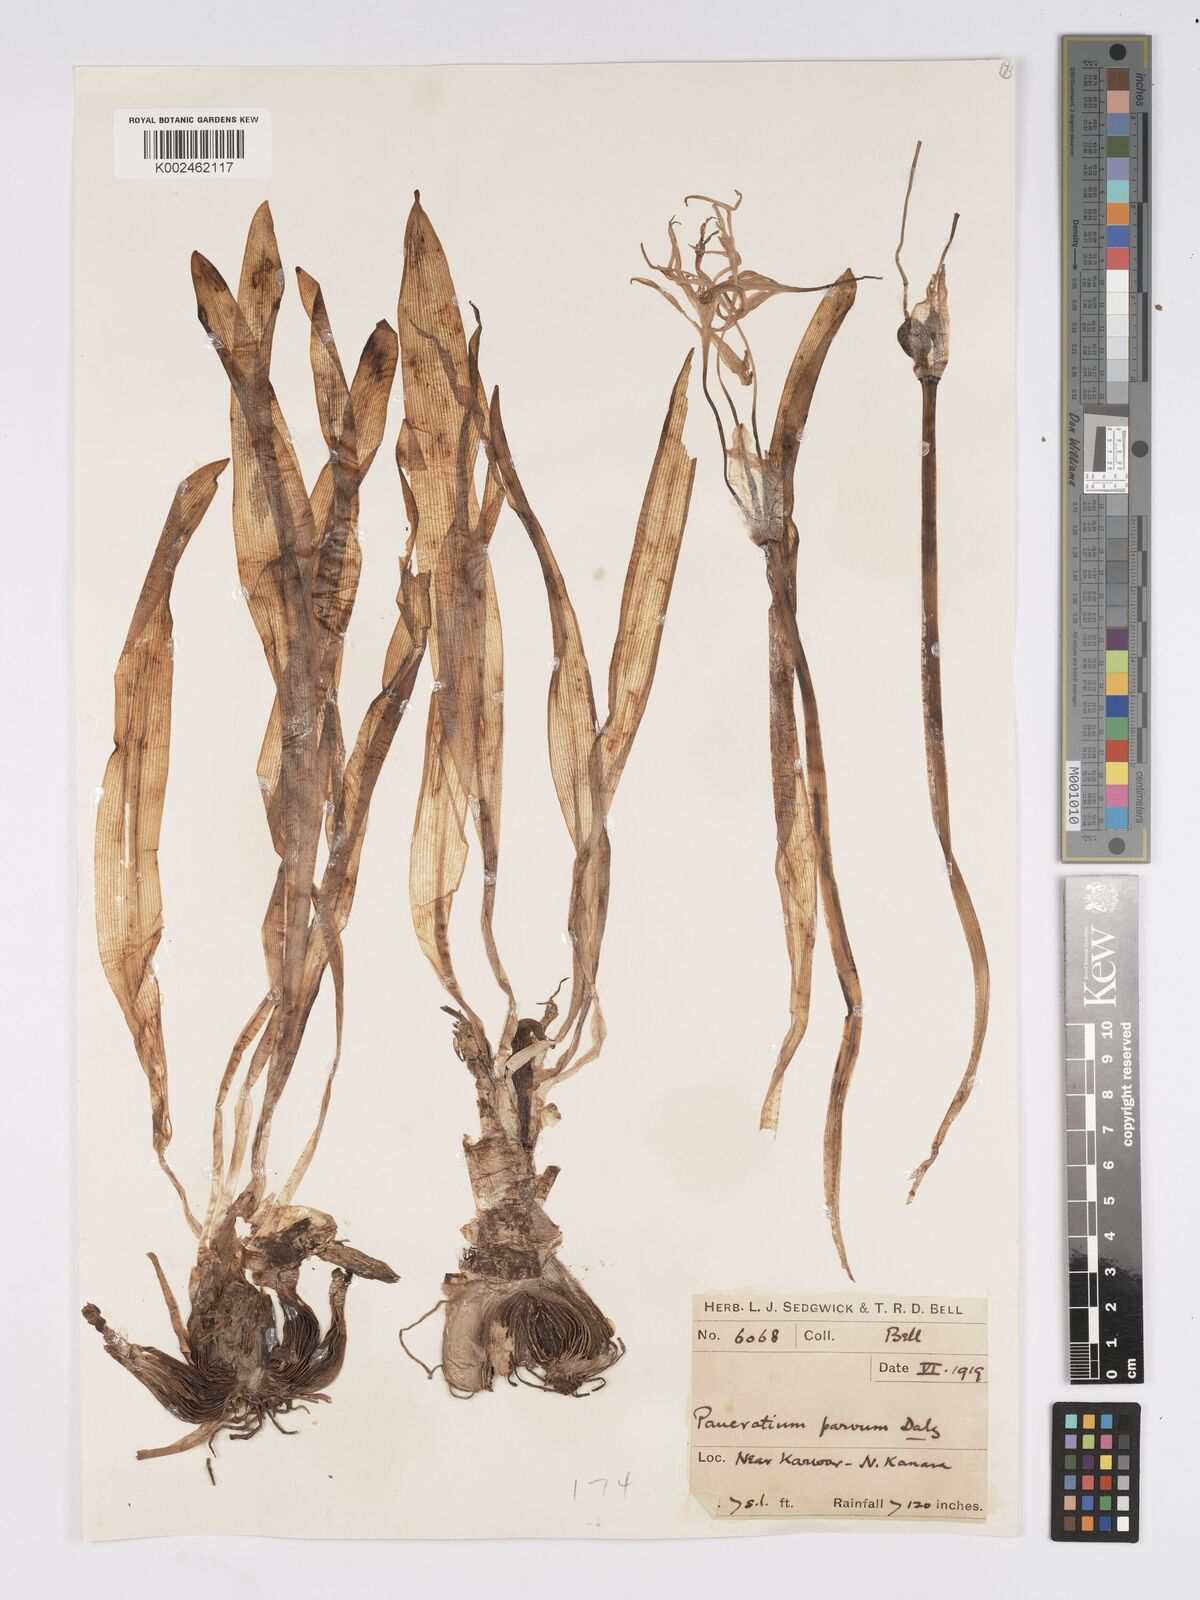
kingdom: Plantae
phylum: Tracheophyta
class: Liliopsida
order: Asparagales
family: Amaryllidaceae
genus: Pancratium
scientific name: Pancratium parvum
